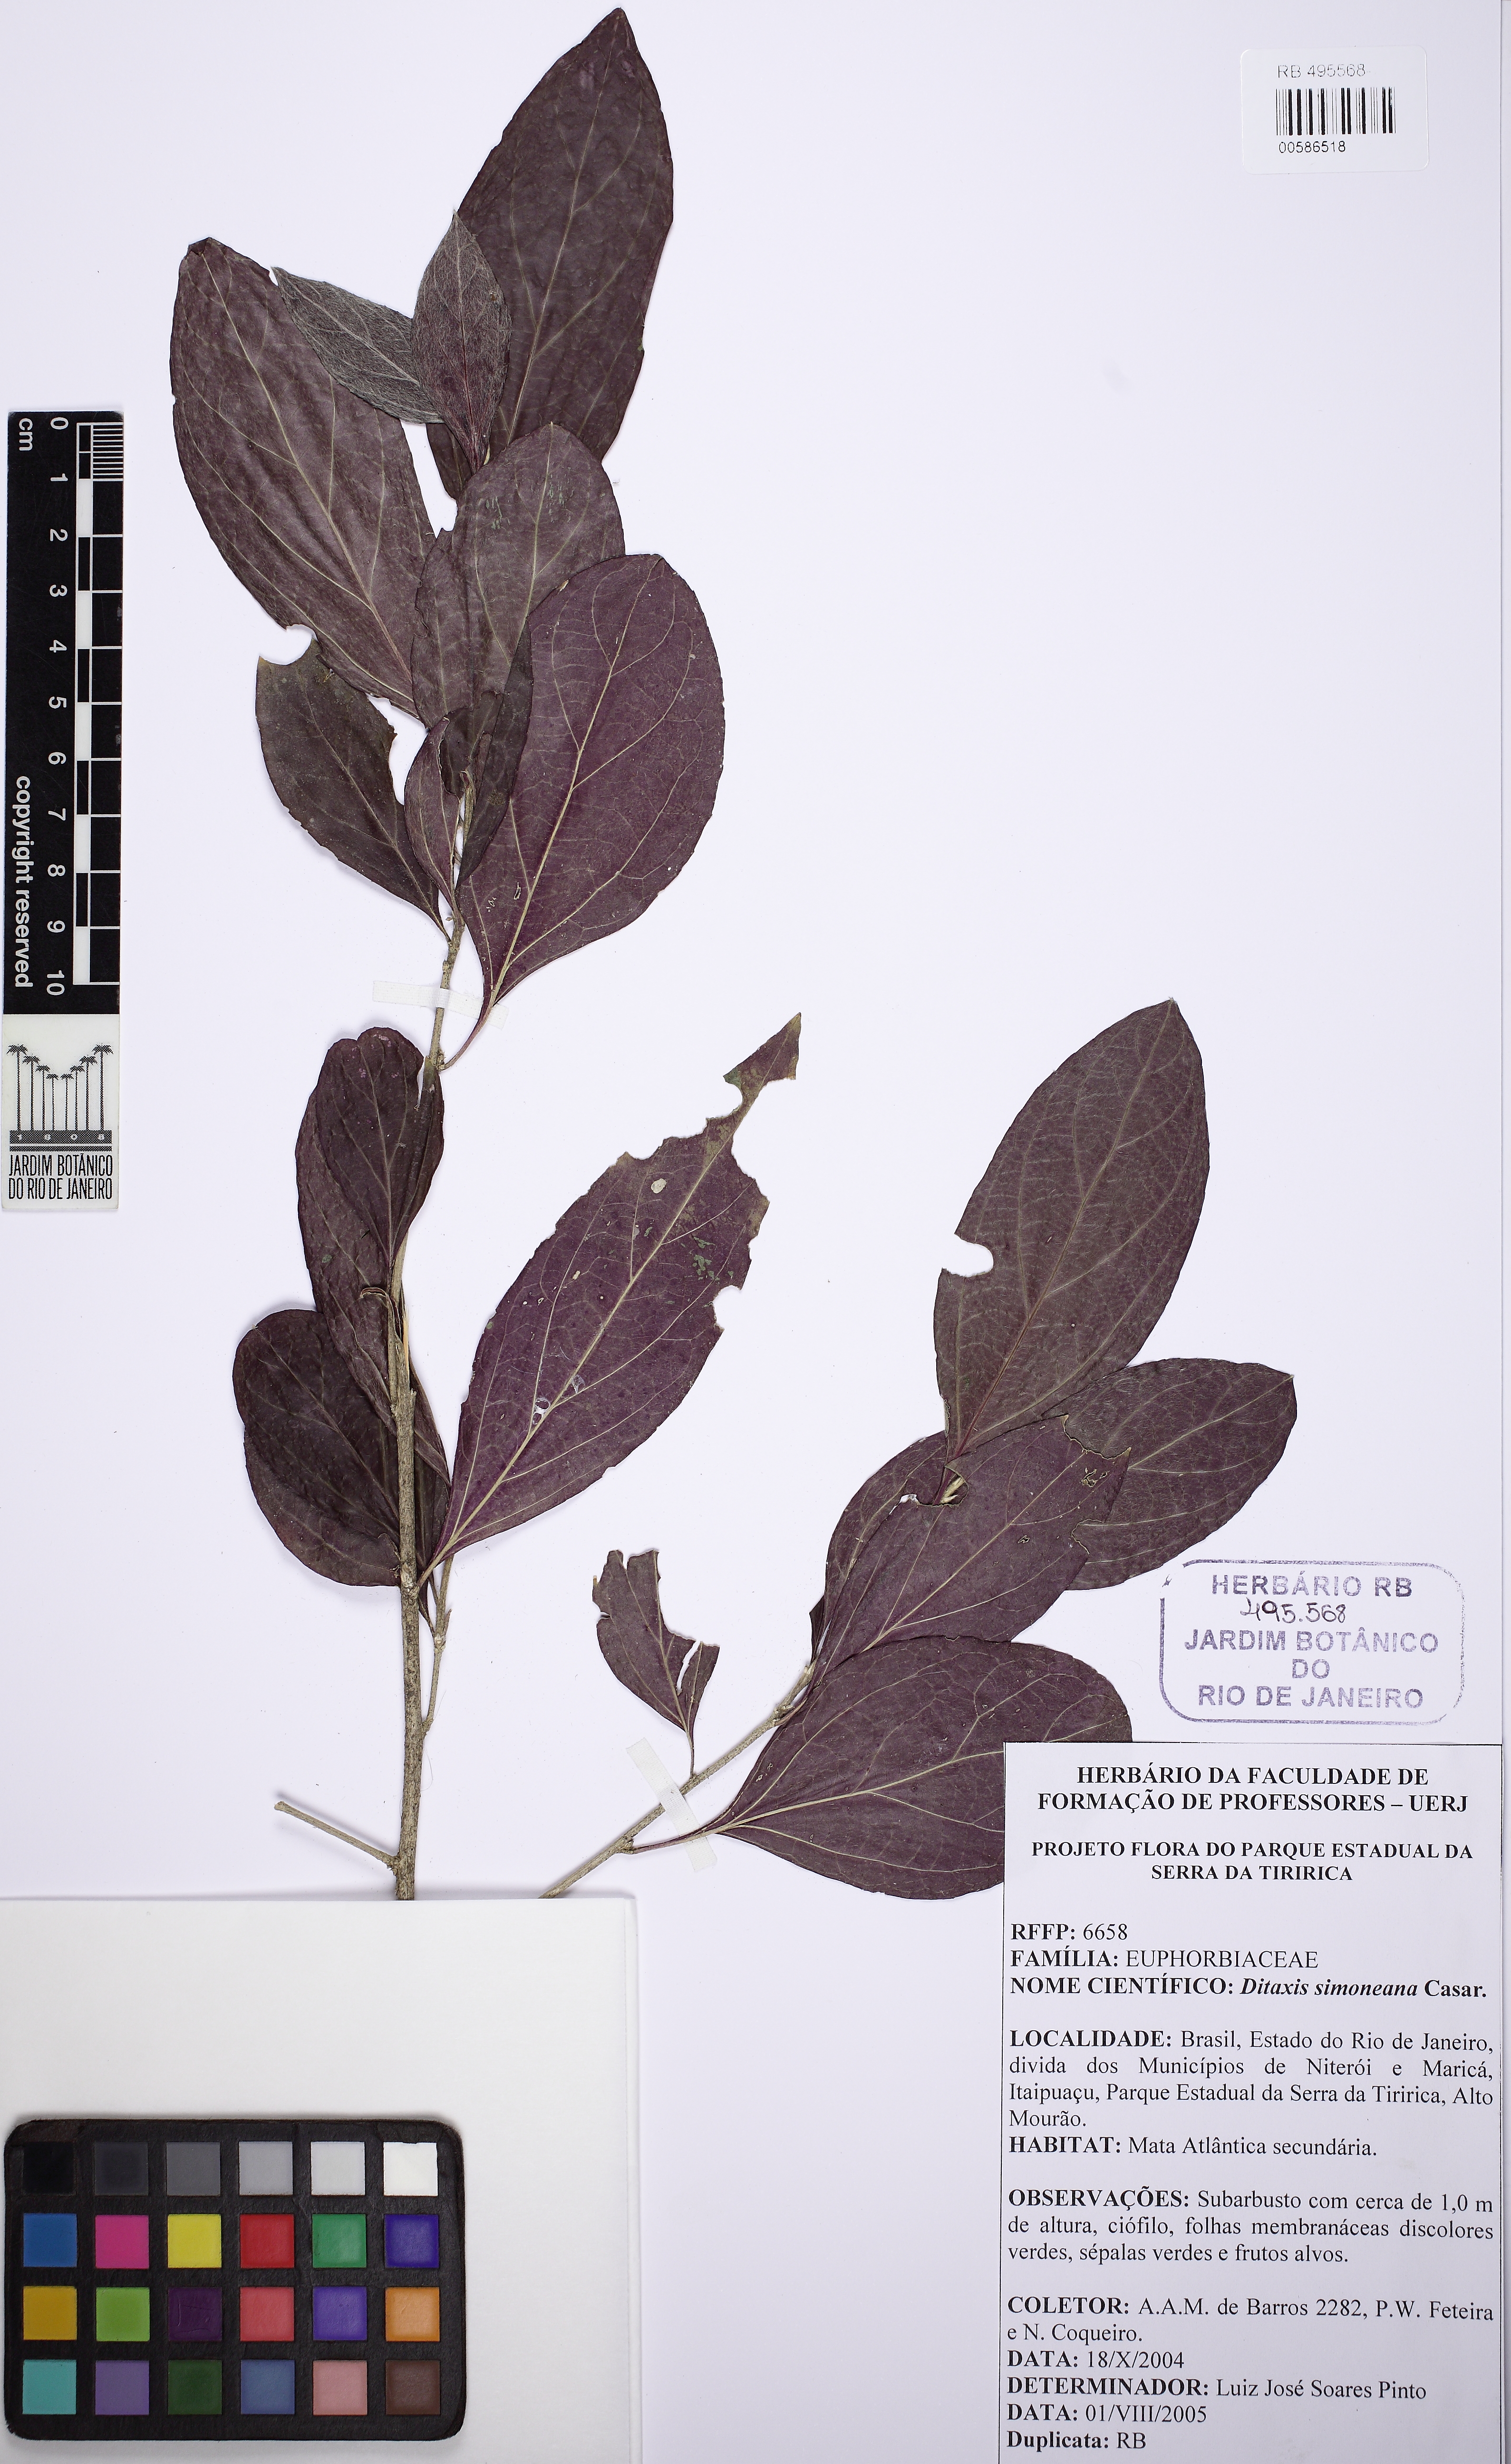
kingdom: Plantae
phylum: Tracheophyta
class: Magnoliopsida
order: Malpighiales
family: Euphorbiaceae
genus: Ditaxis
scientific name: Ditaxis simoniana
